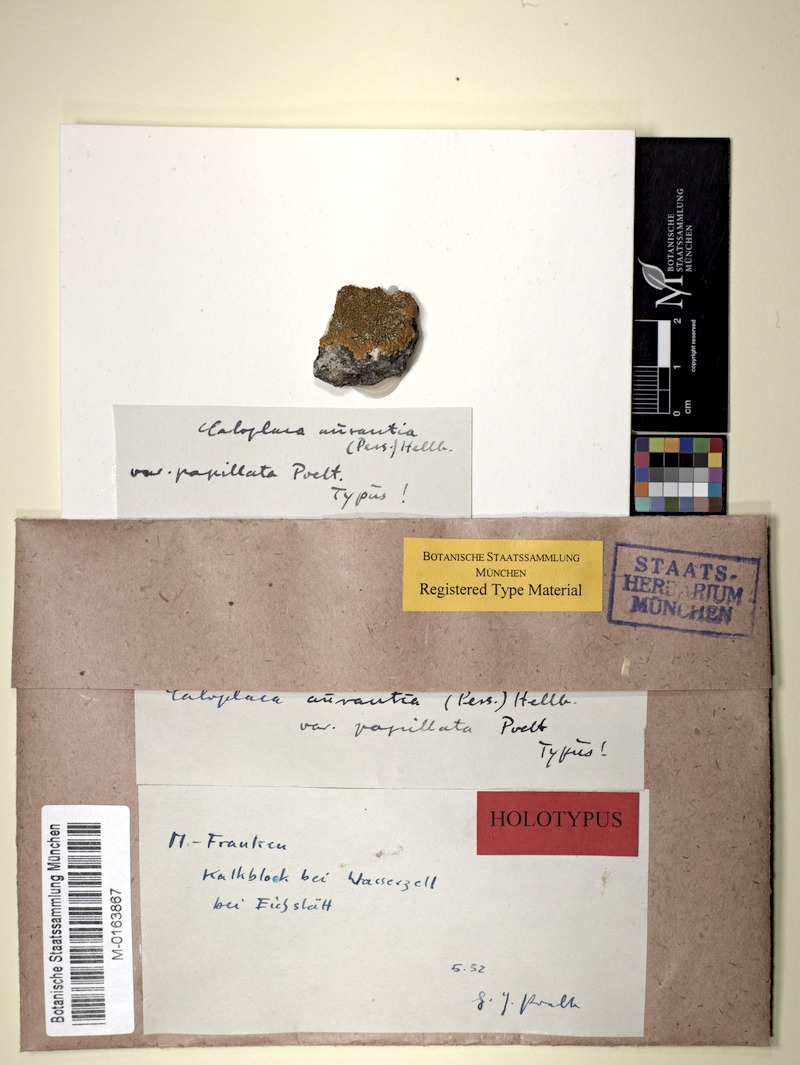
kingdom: Fungi
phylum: Ascomycota
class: Lecanoromycetes
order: Teloschistales
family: Teloschistaceae
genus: Variospora
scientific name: Variospora aurantia
